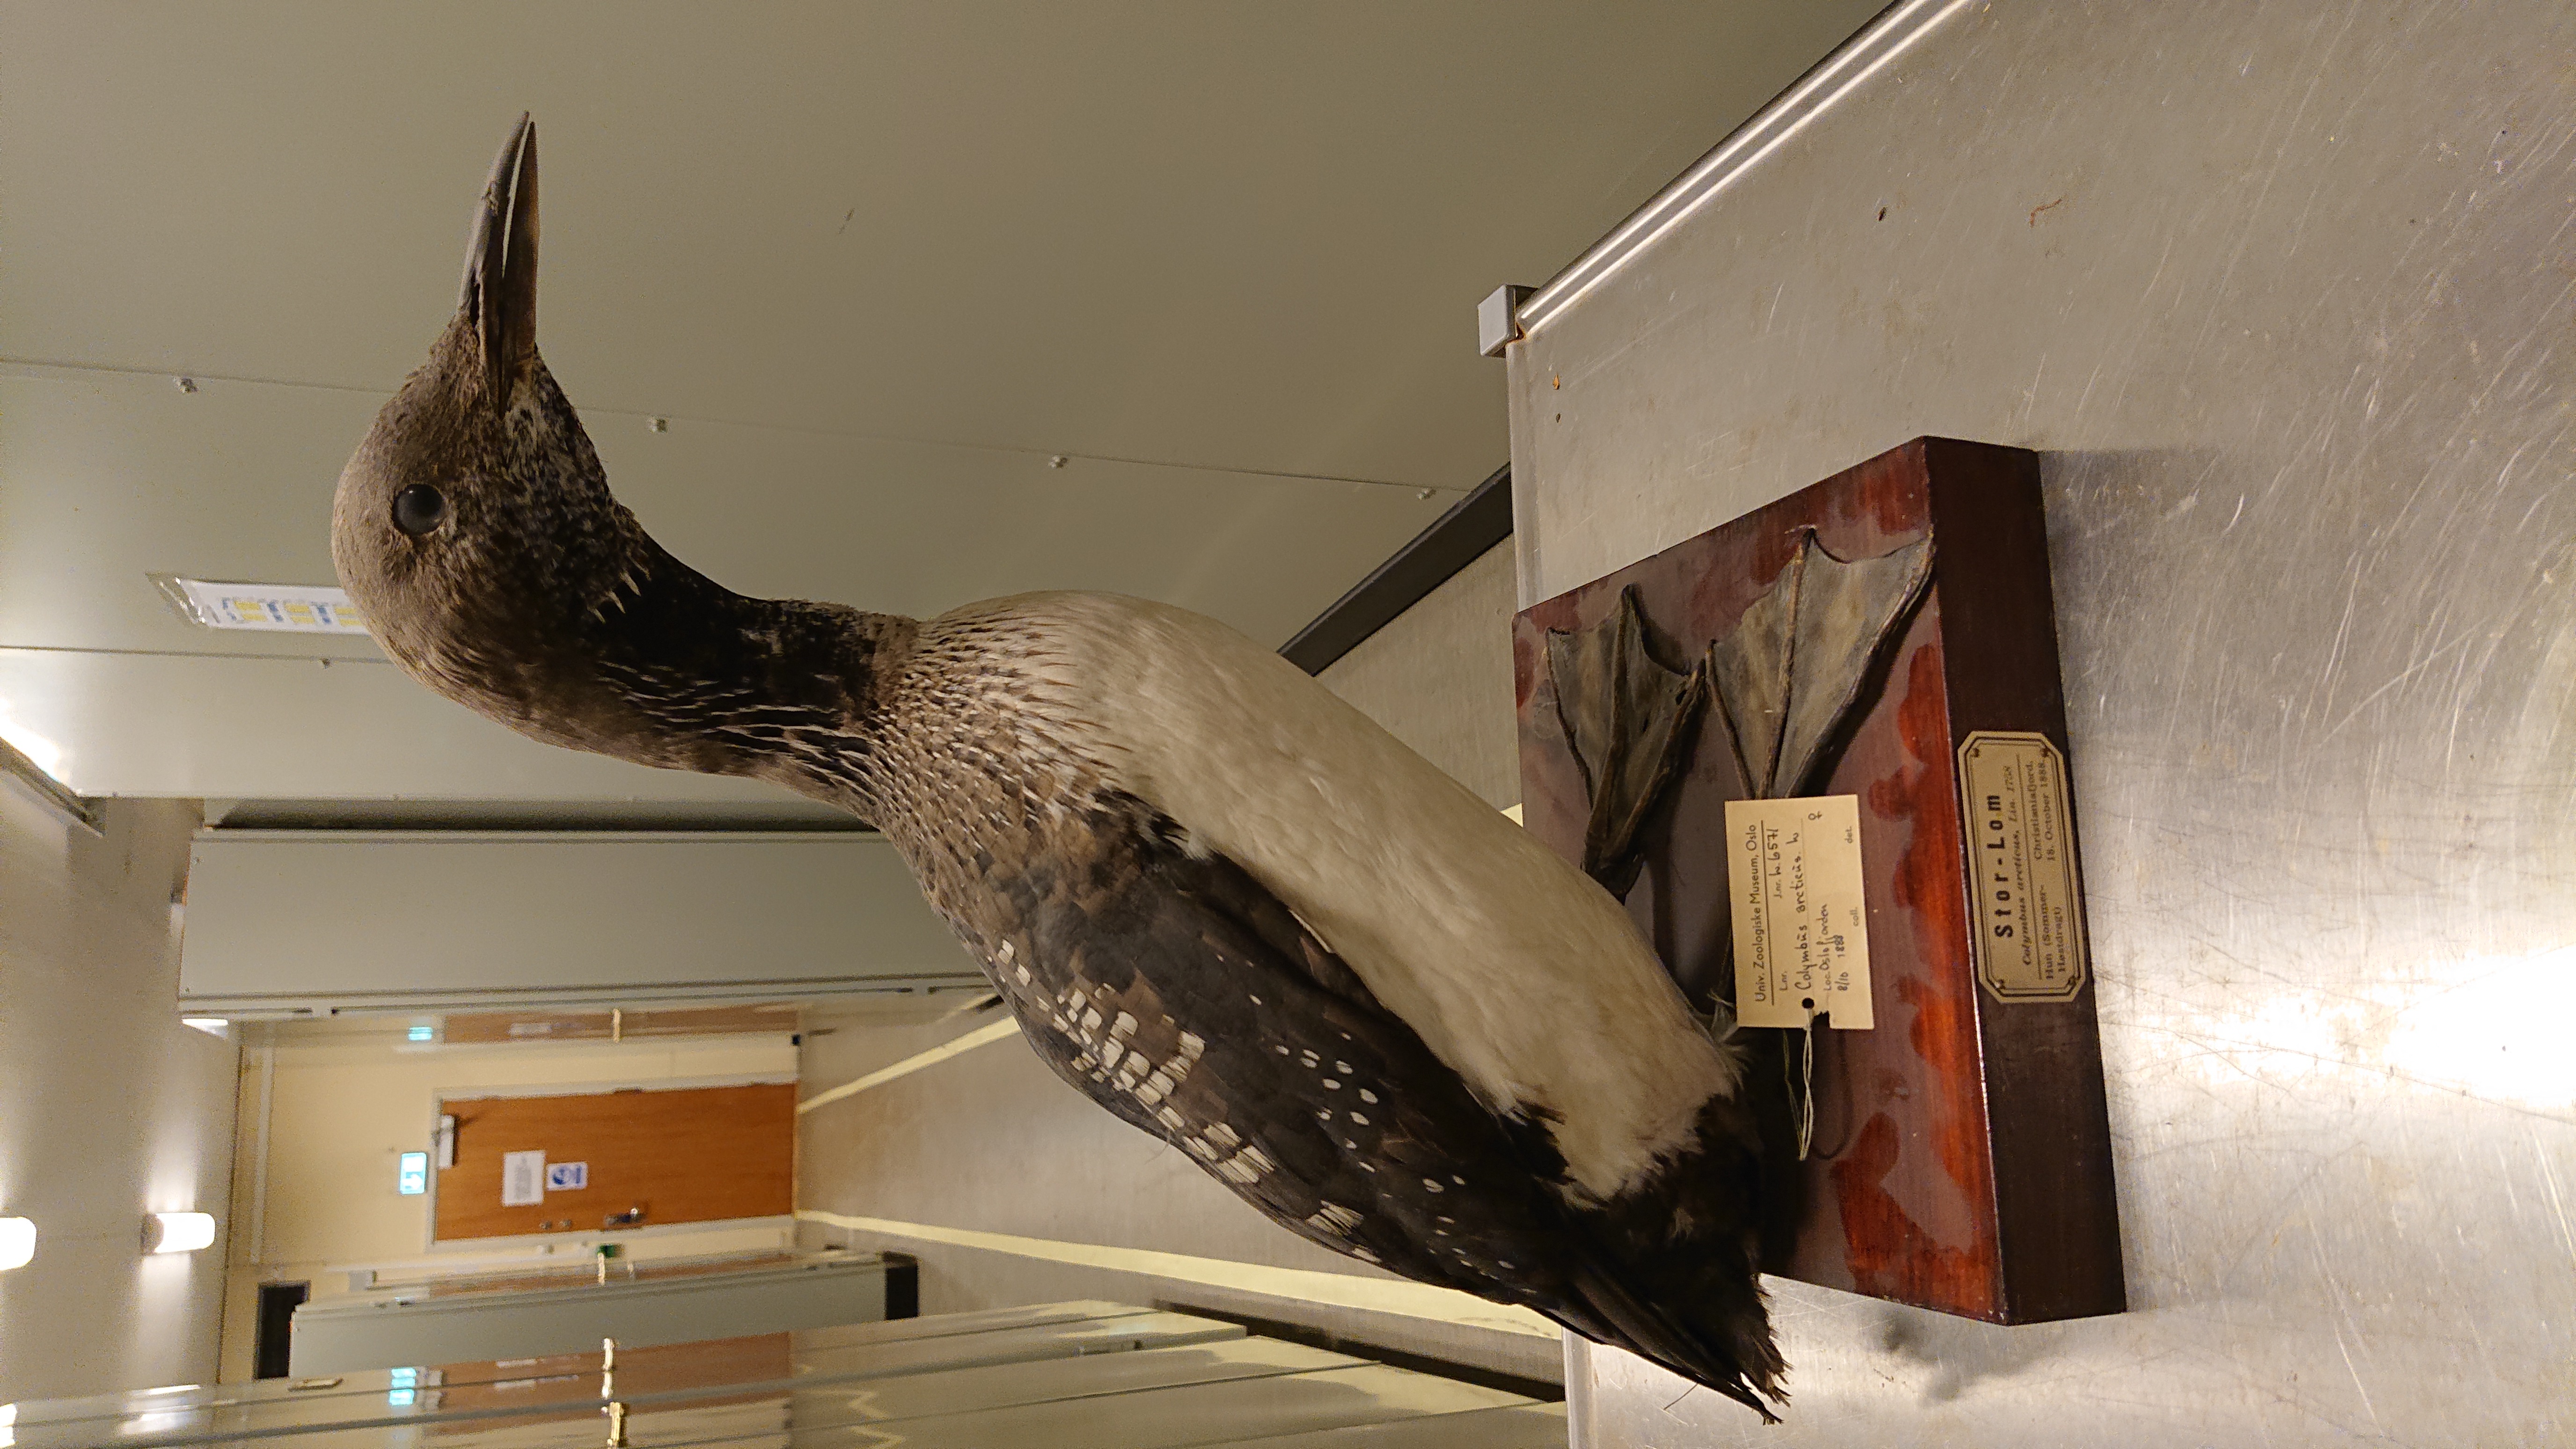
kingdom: Animalia
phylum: Chordata
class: Aves
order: Gaviiformes
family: Gaviidae
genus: Gavia
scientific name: Gavia arctica
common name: Black-throated loon
